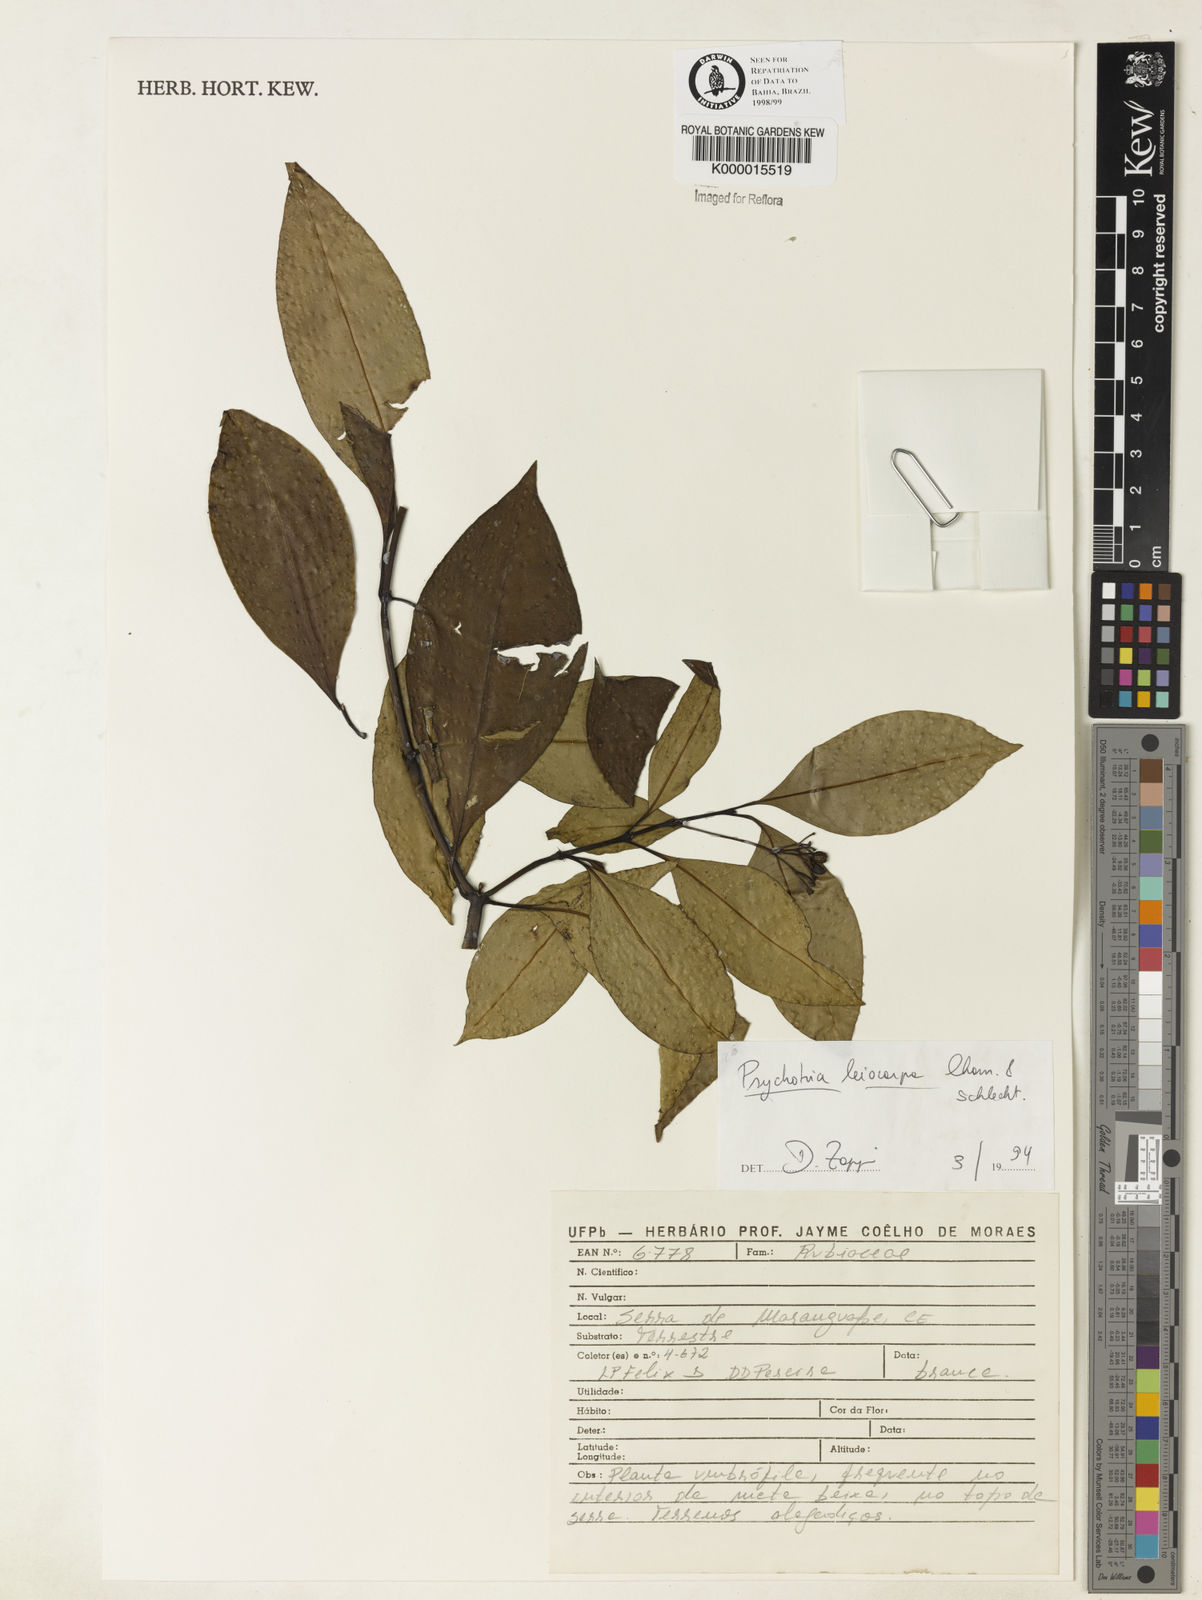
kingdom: Plantae
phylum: Tracheophyta
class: Magnoliopsida
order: Gentianales
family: Rubiaceae
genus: Psychotria
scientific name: Psychotria leiocarpa
